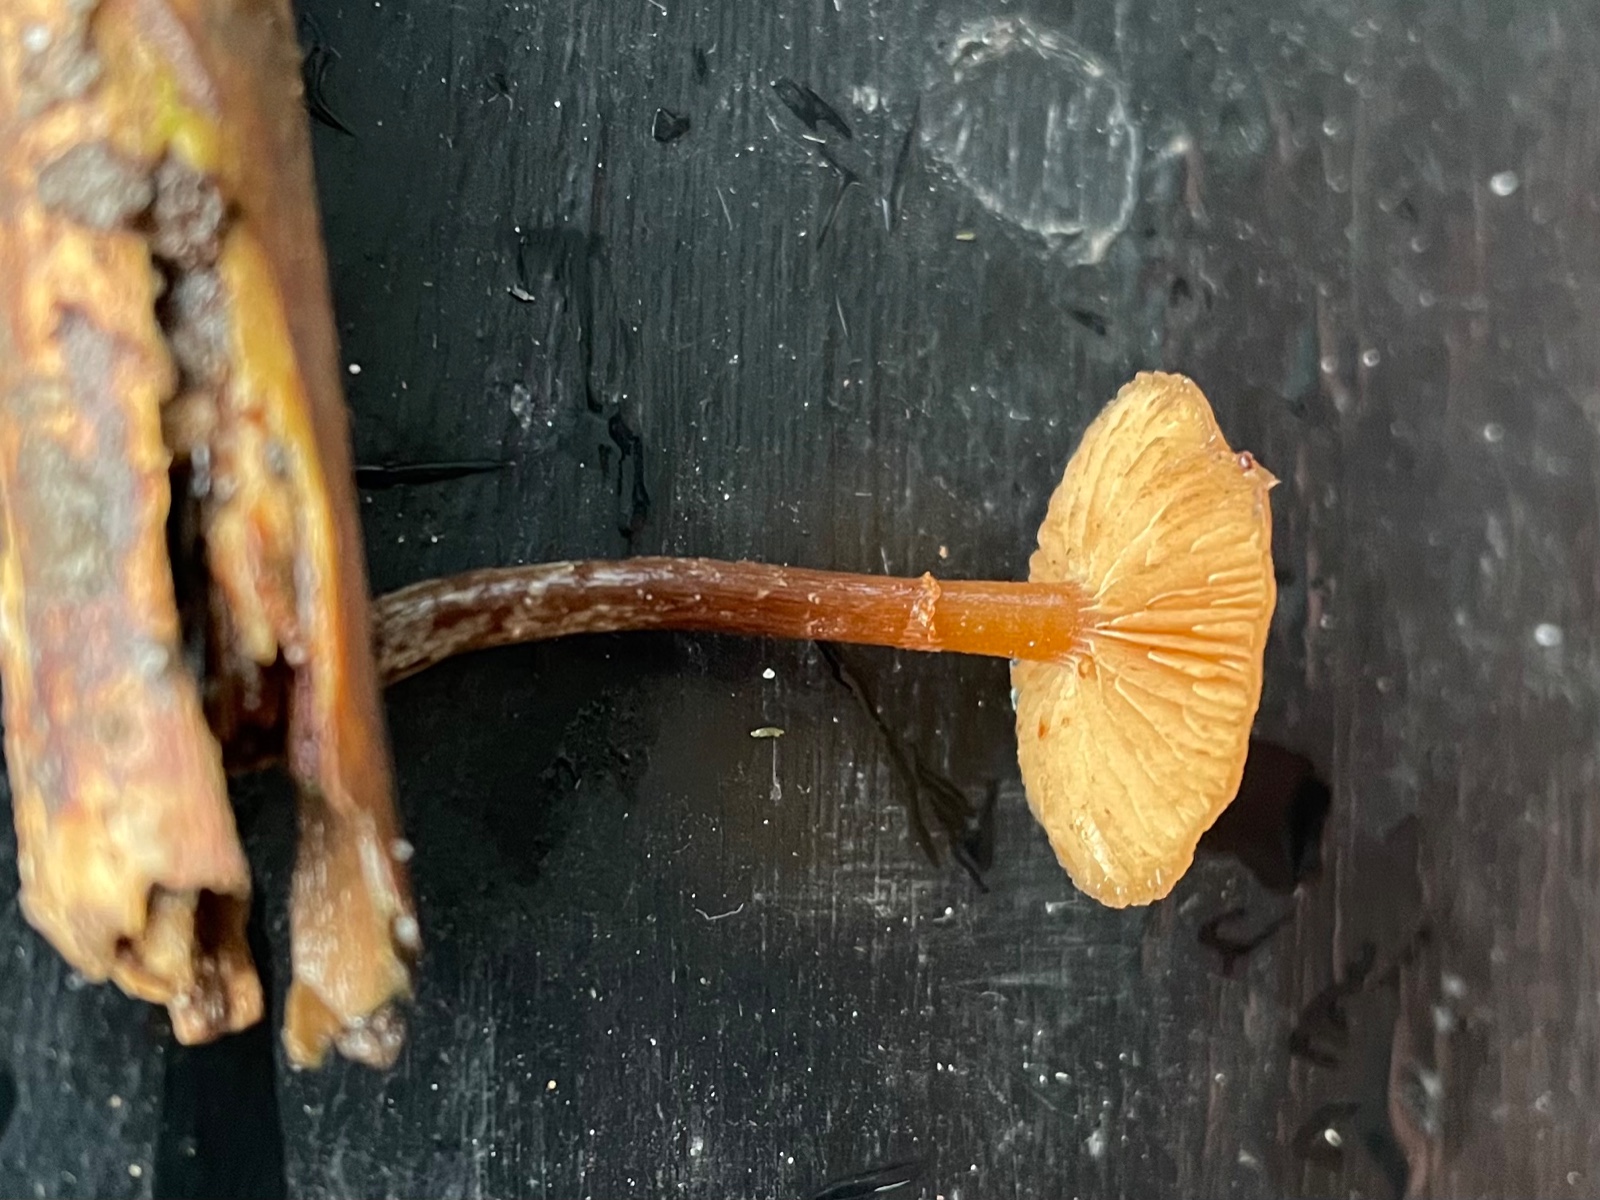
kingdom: Fungi
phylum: Basidiomycota
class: Agaricomycetes
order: Agaricales
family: Hymenogastraceae
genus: Galerina
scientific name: Galerina
